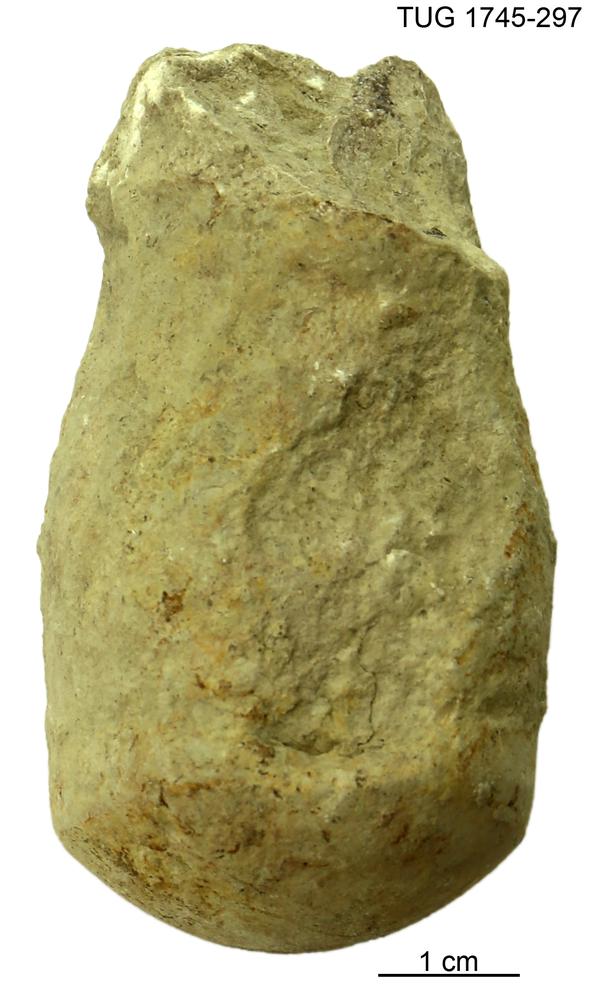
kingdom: Animalia
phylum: Mollusca
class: Cephalopoda
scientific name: Cephalopoda
